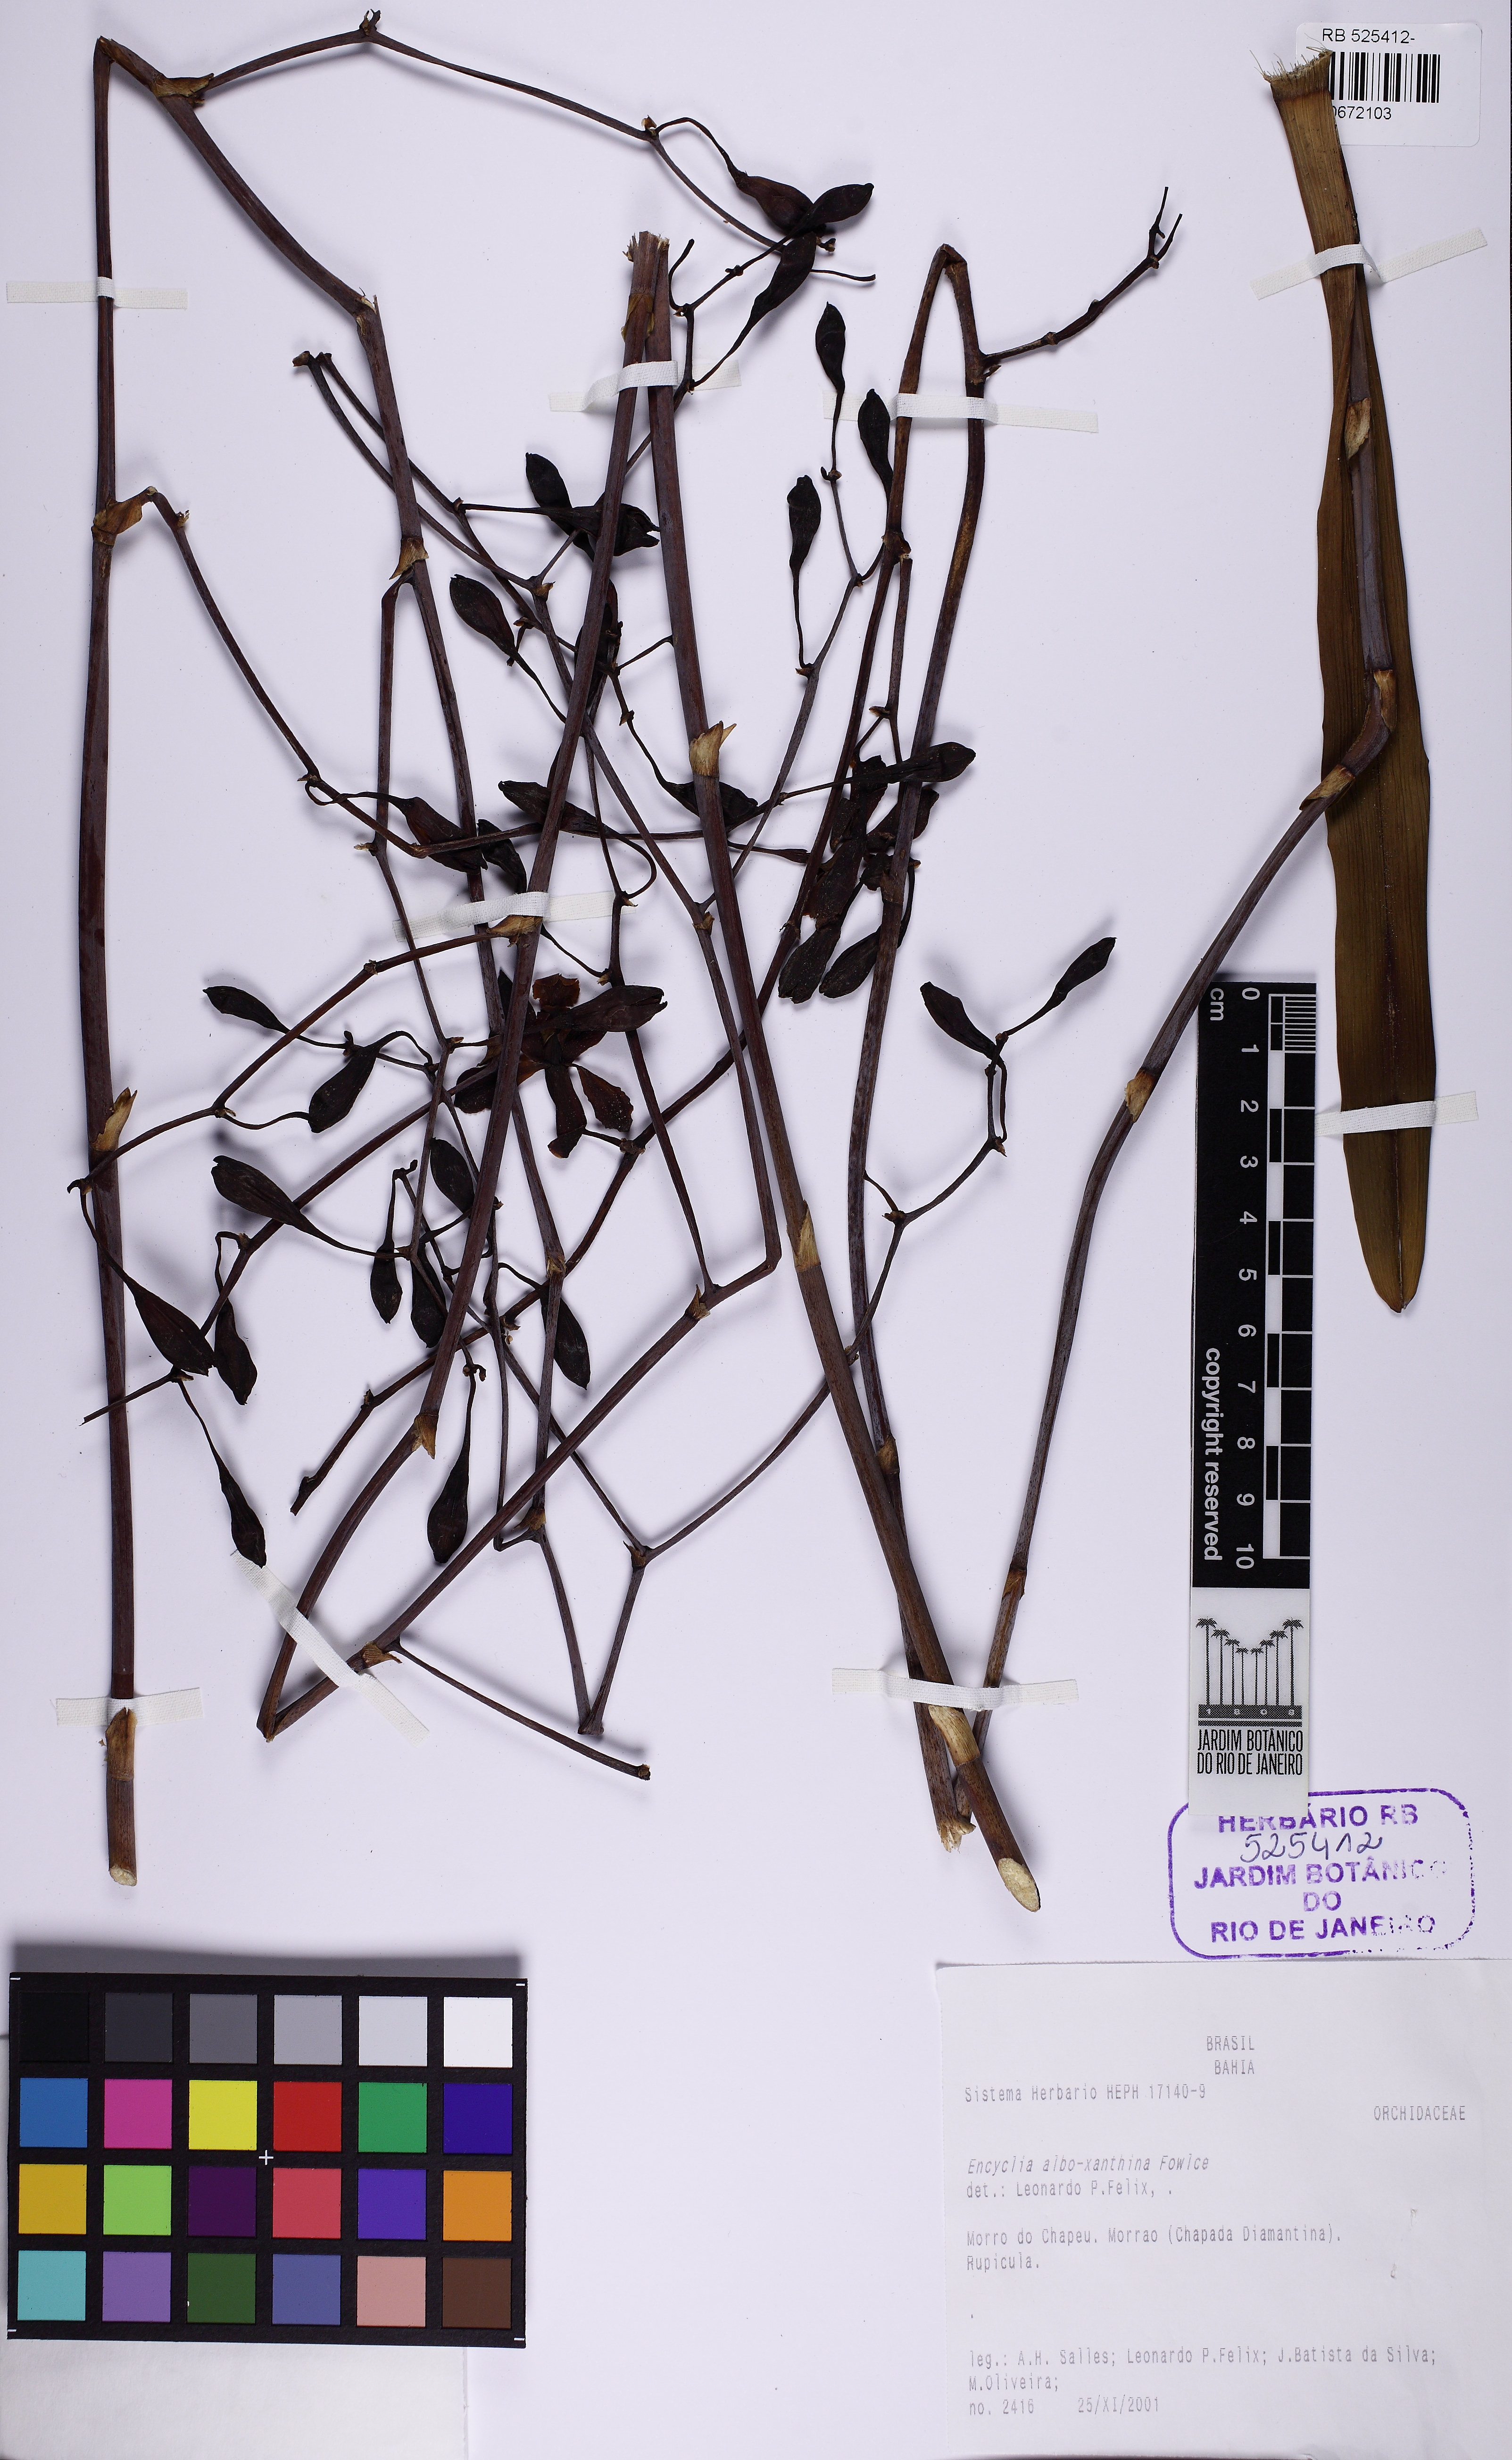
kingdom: Plantae
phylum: Tracheophyta
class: Liliopsida
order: Asparagales
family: Orchidaceae
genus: Encyclia
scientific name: Encyclia alboxanthina
